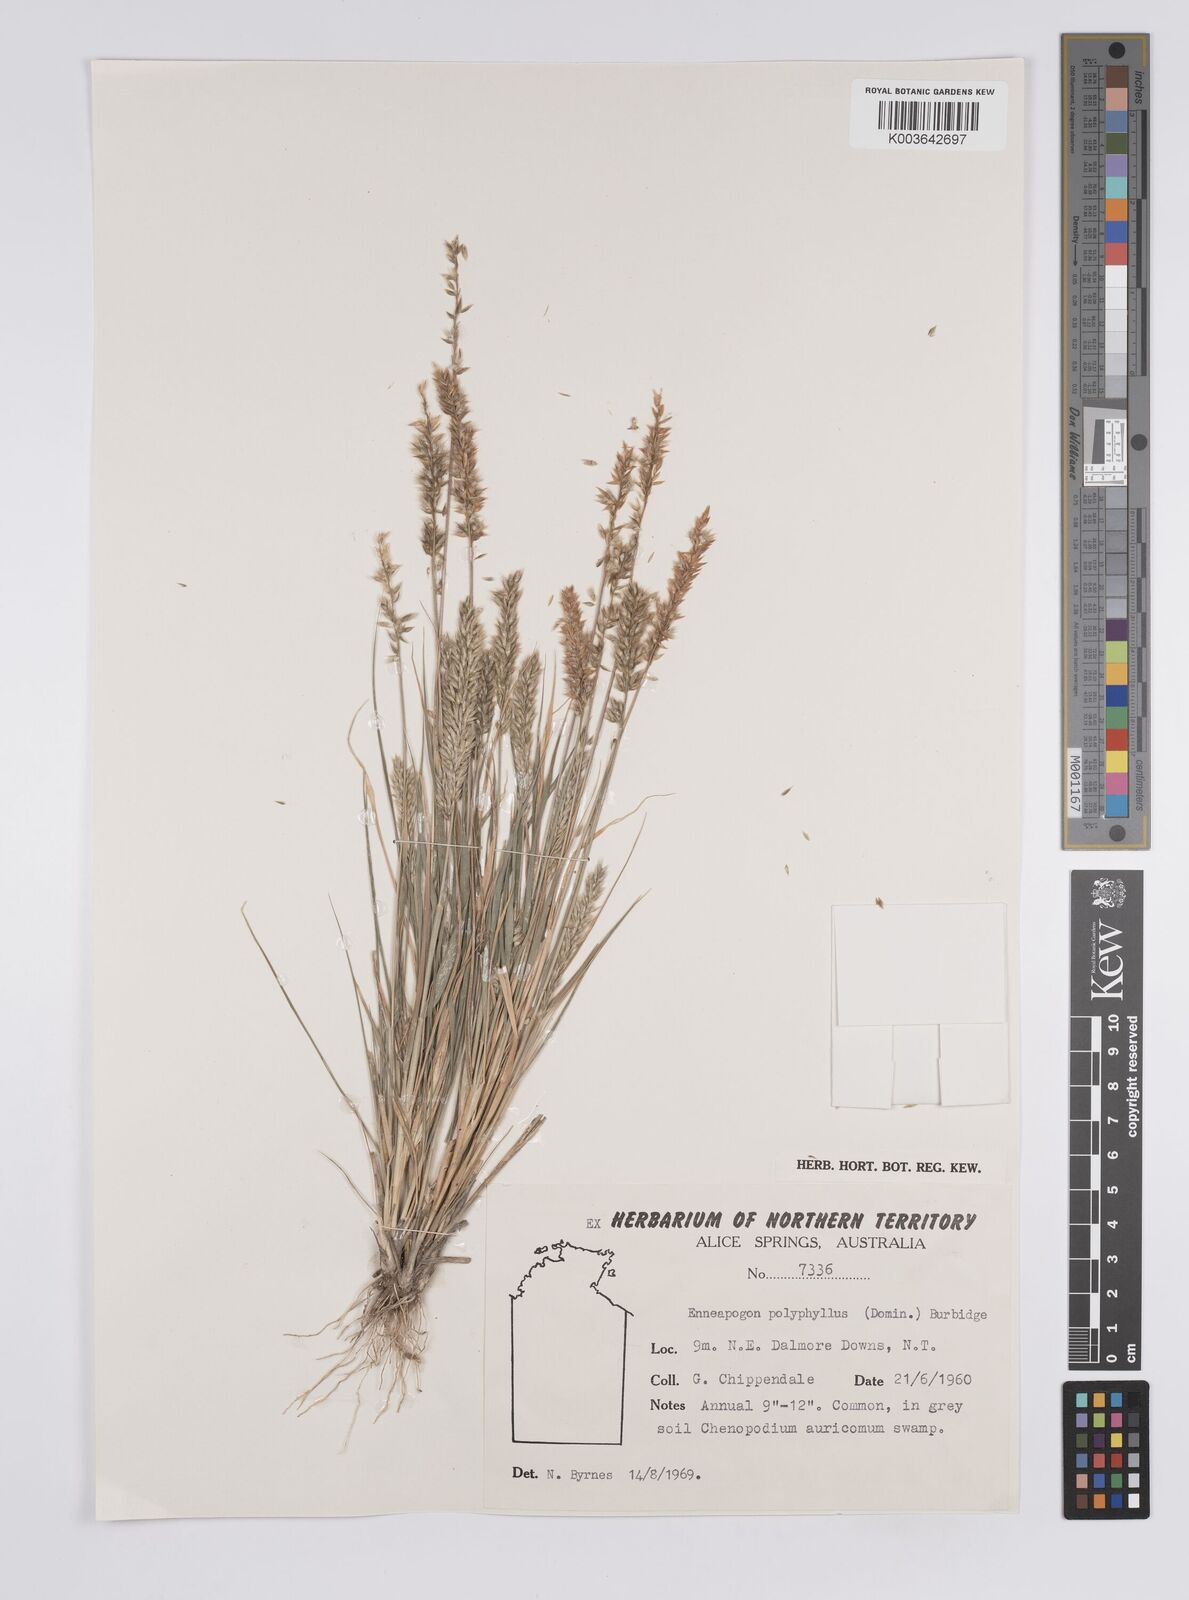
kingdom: Plantae
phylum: Tracheophyta
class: Liliopsida
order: Poales
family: Poaceae
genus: Enneapogon
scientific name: Enneapogon polyphyllus
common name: Leafy nineawn
